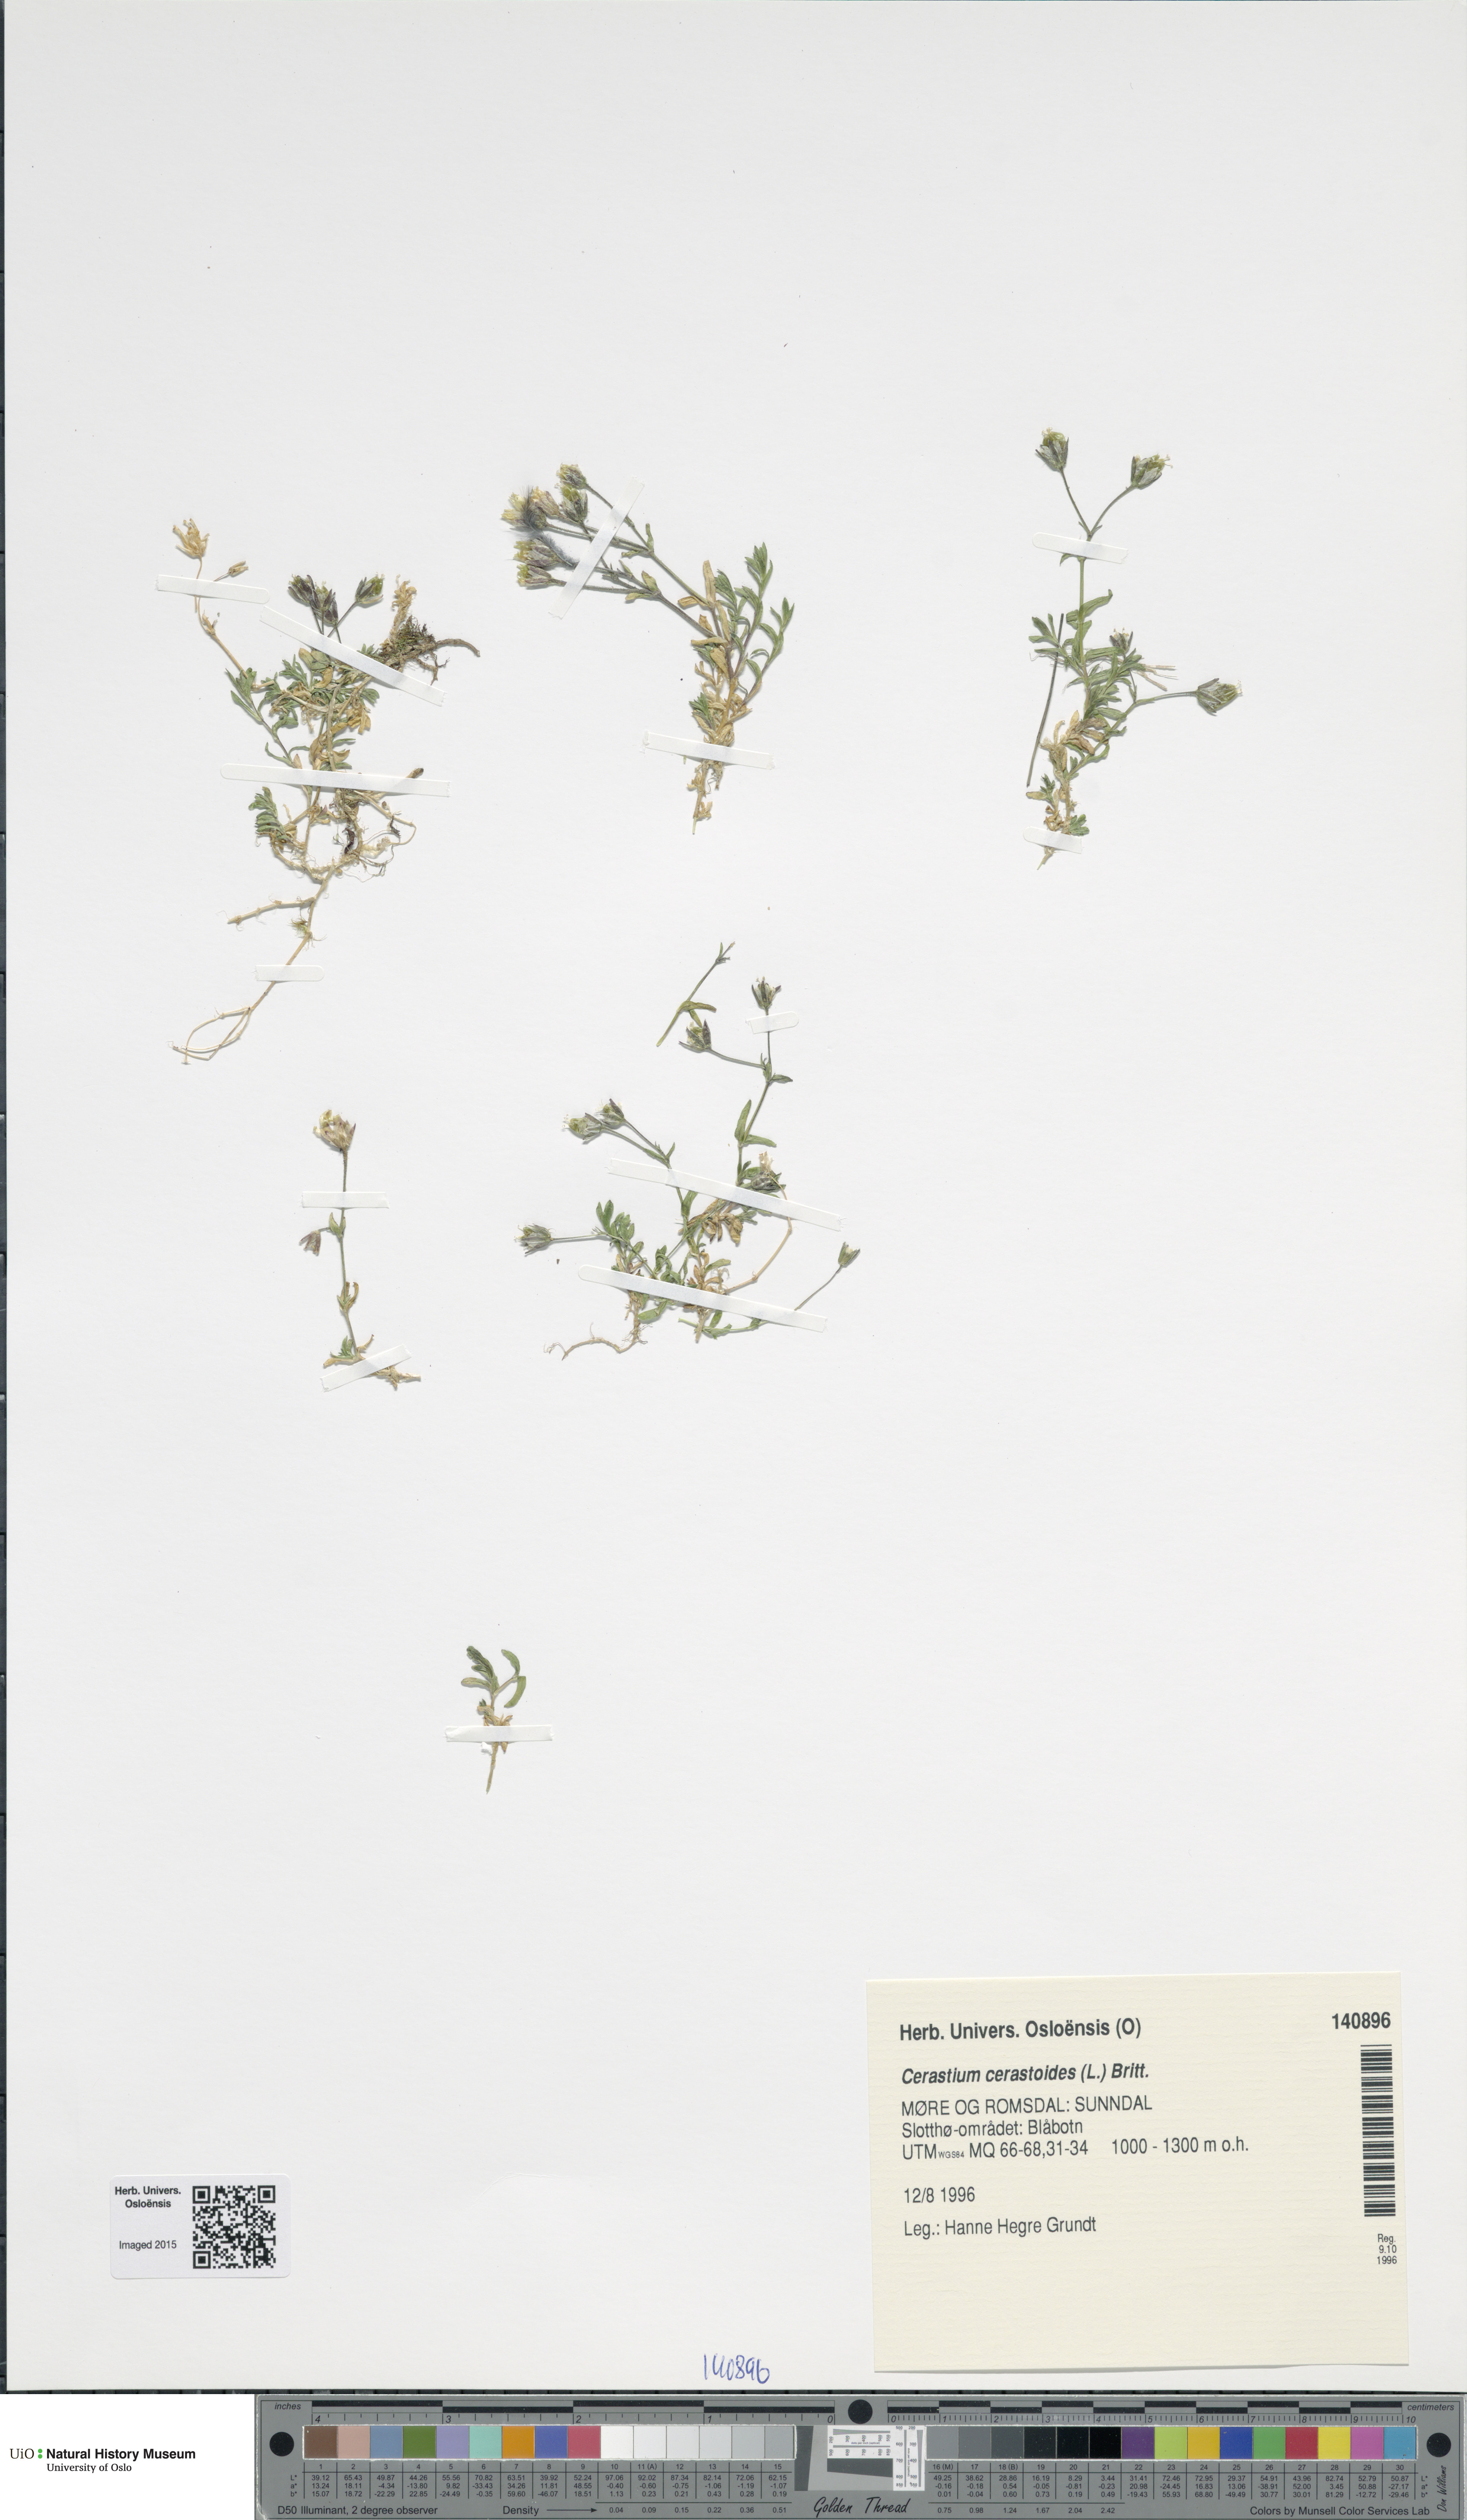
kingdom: Plantae
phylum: Tracheophyta
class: Magnoliopsida
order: Caryophyllales
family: Caryophyllaceae
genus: Dichodon
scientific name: Dichodon cerastoides
